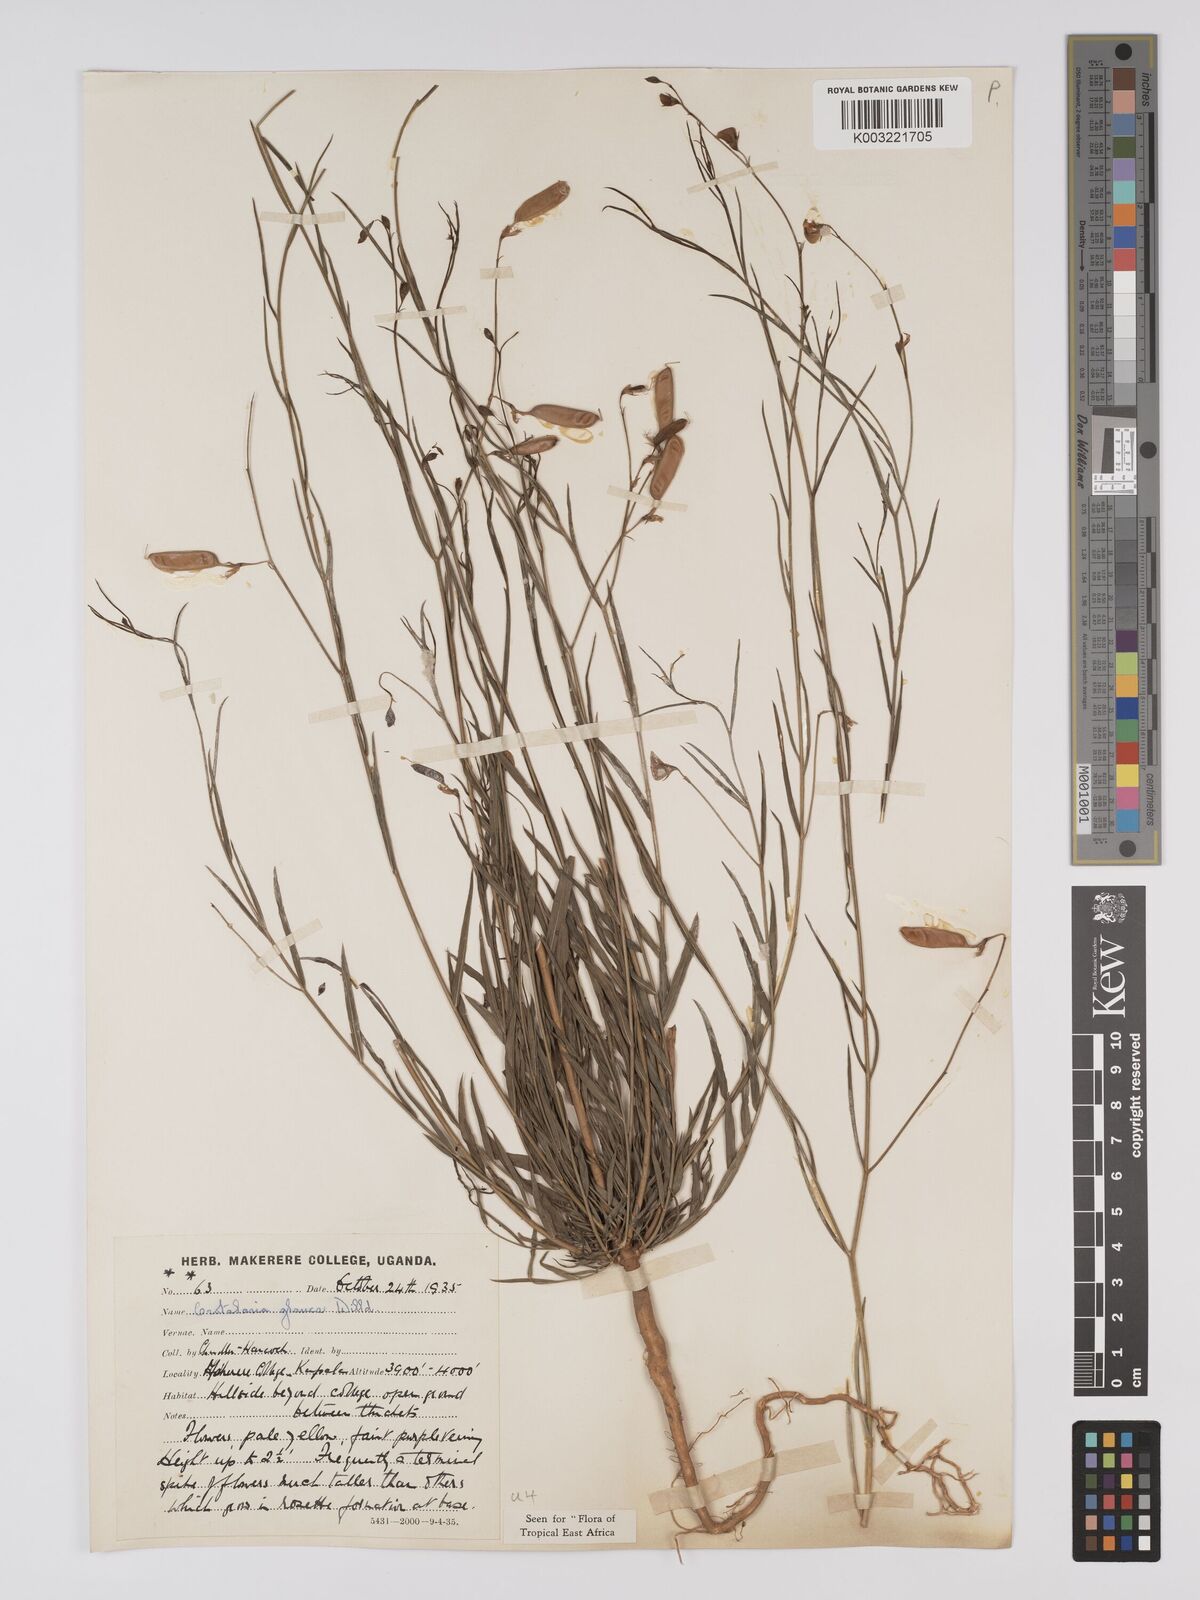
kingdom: Plantae
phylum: Tracheophyta
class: Magnoliopsida
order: Fabales
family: Fabaceae
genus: Crotalaria
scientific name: Crotalaria glauca
